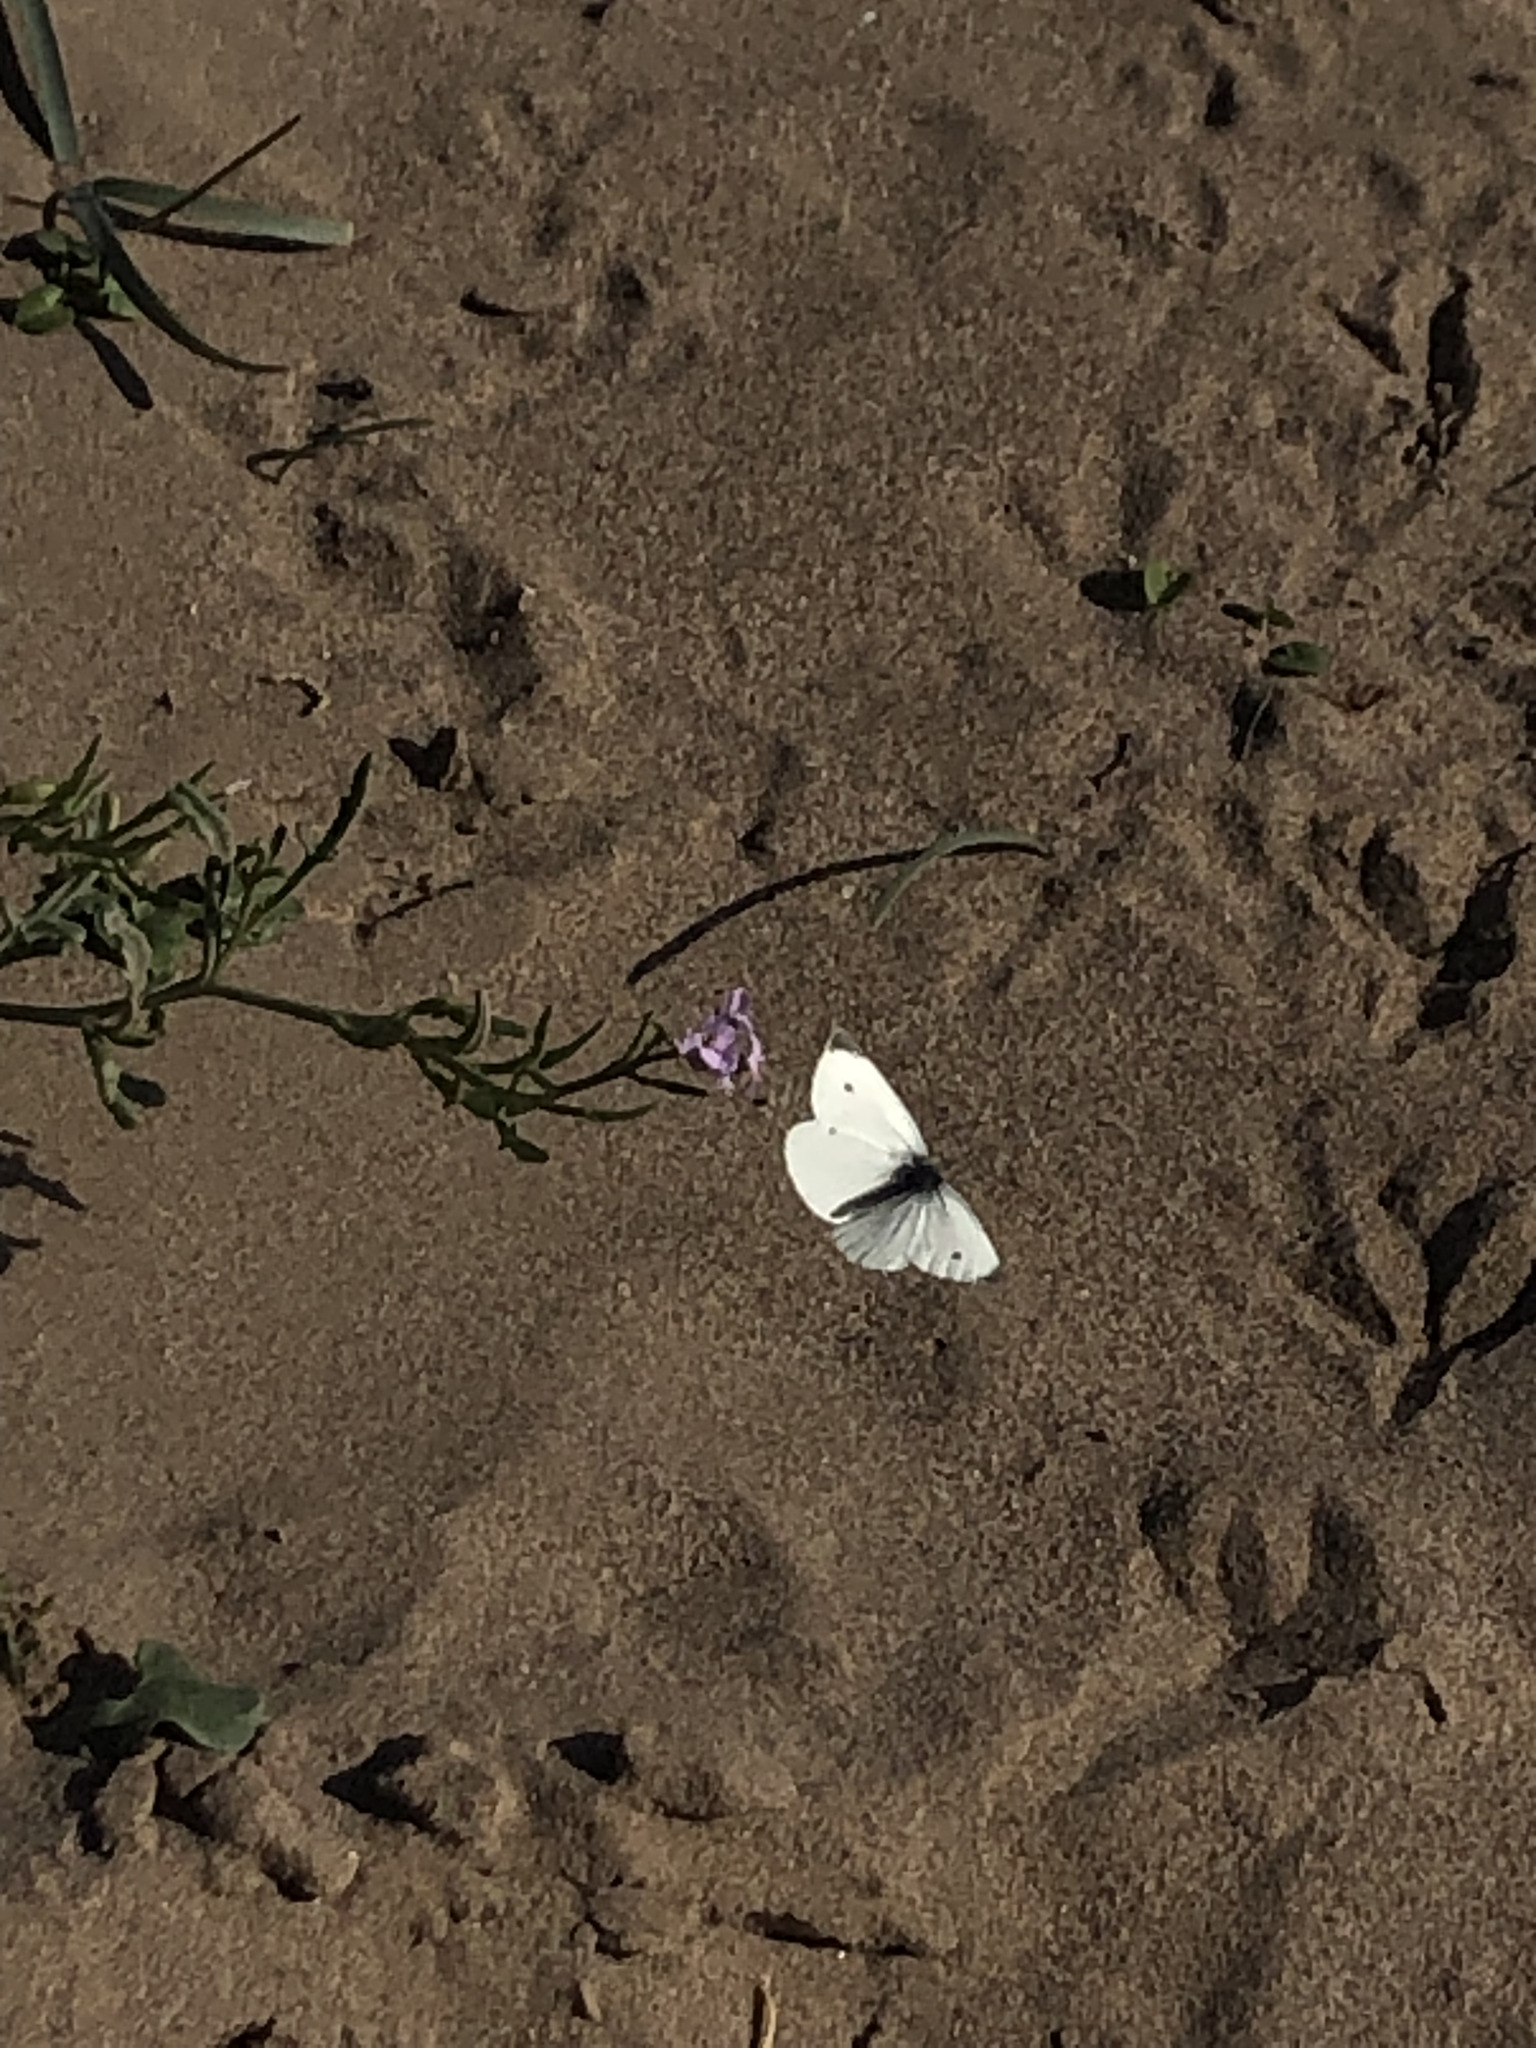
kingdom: Animalia
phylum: Arthropoda
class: Insecta
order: Lepidoptera
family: Pieridae
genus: Pieris
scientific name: Pieris rapae
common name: Small white
